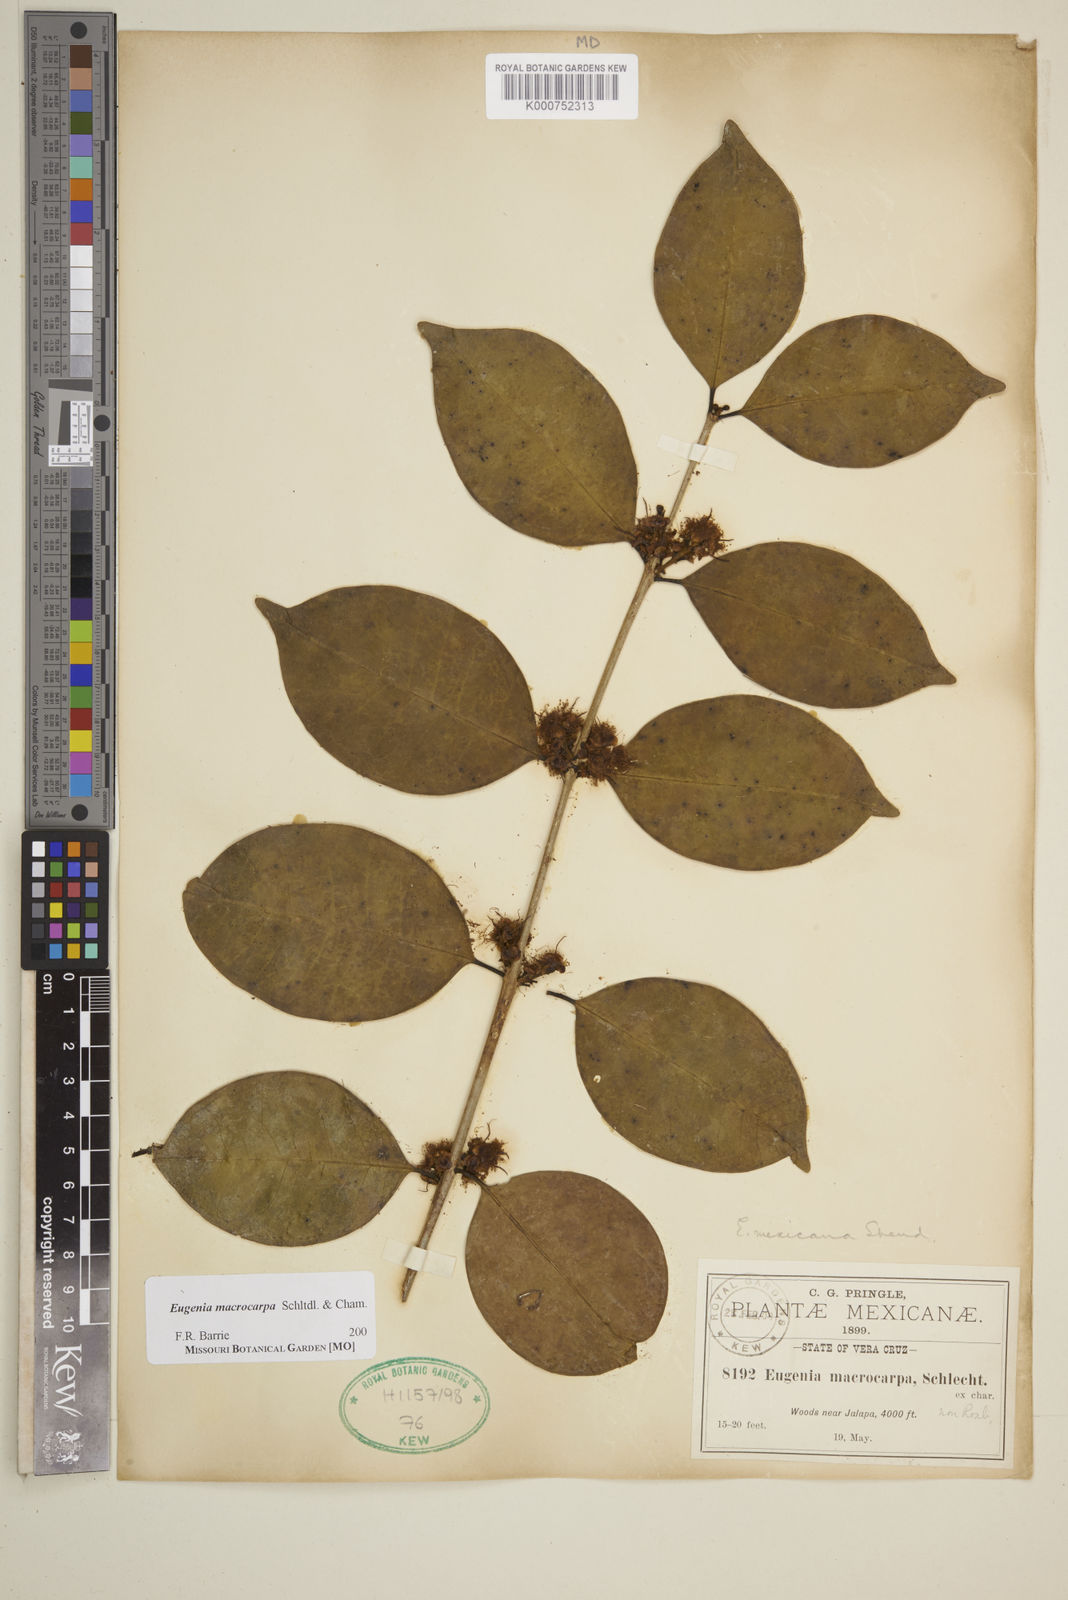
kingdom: Plantae
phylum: Tracheophyta
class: Magnoliopsida
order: Myrtales
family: Myrtaceae
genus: Eugenia
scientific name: Eugenia macrocarpa
